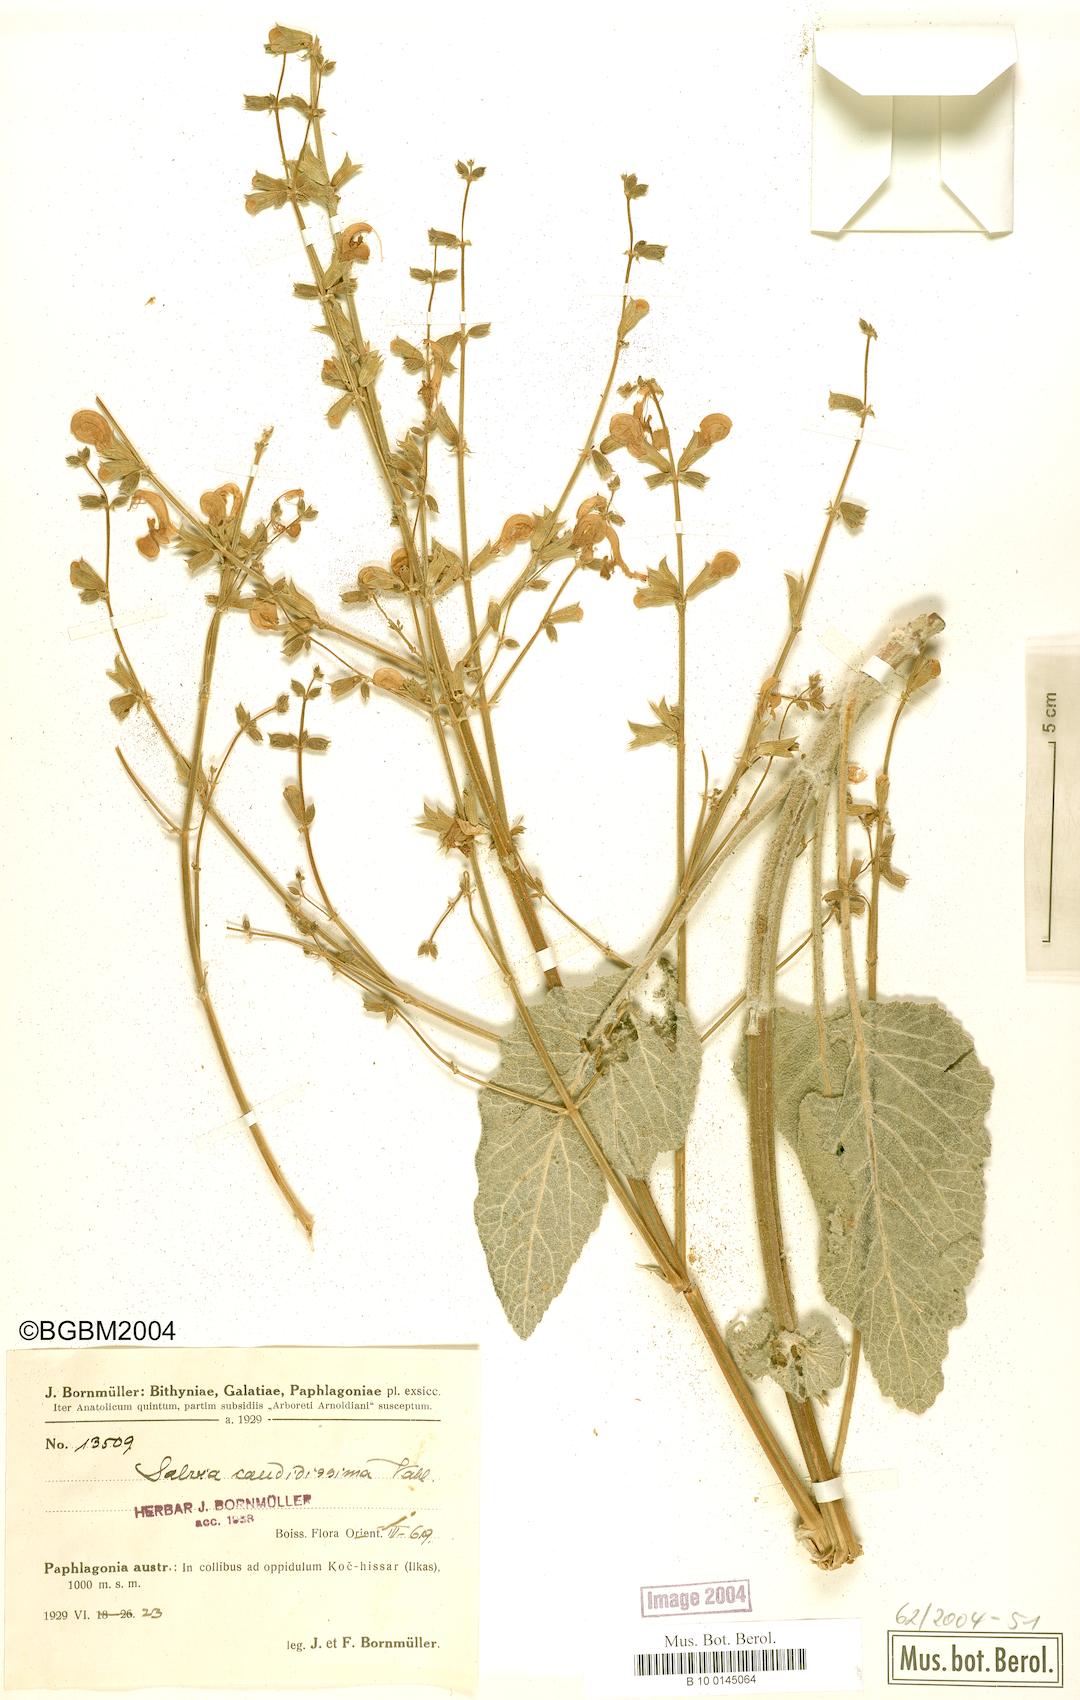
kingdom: Plantae
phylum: Tracheophyta
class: Magnoliopsida
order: Lamiales
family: Lamiaceae
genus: Salvia
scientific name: Salvia candidissima
